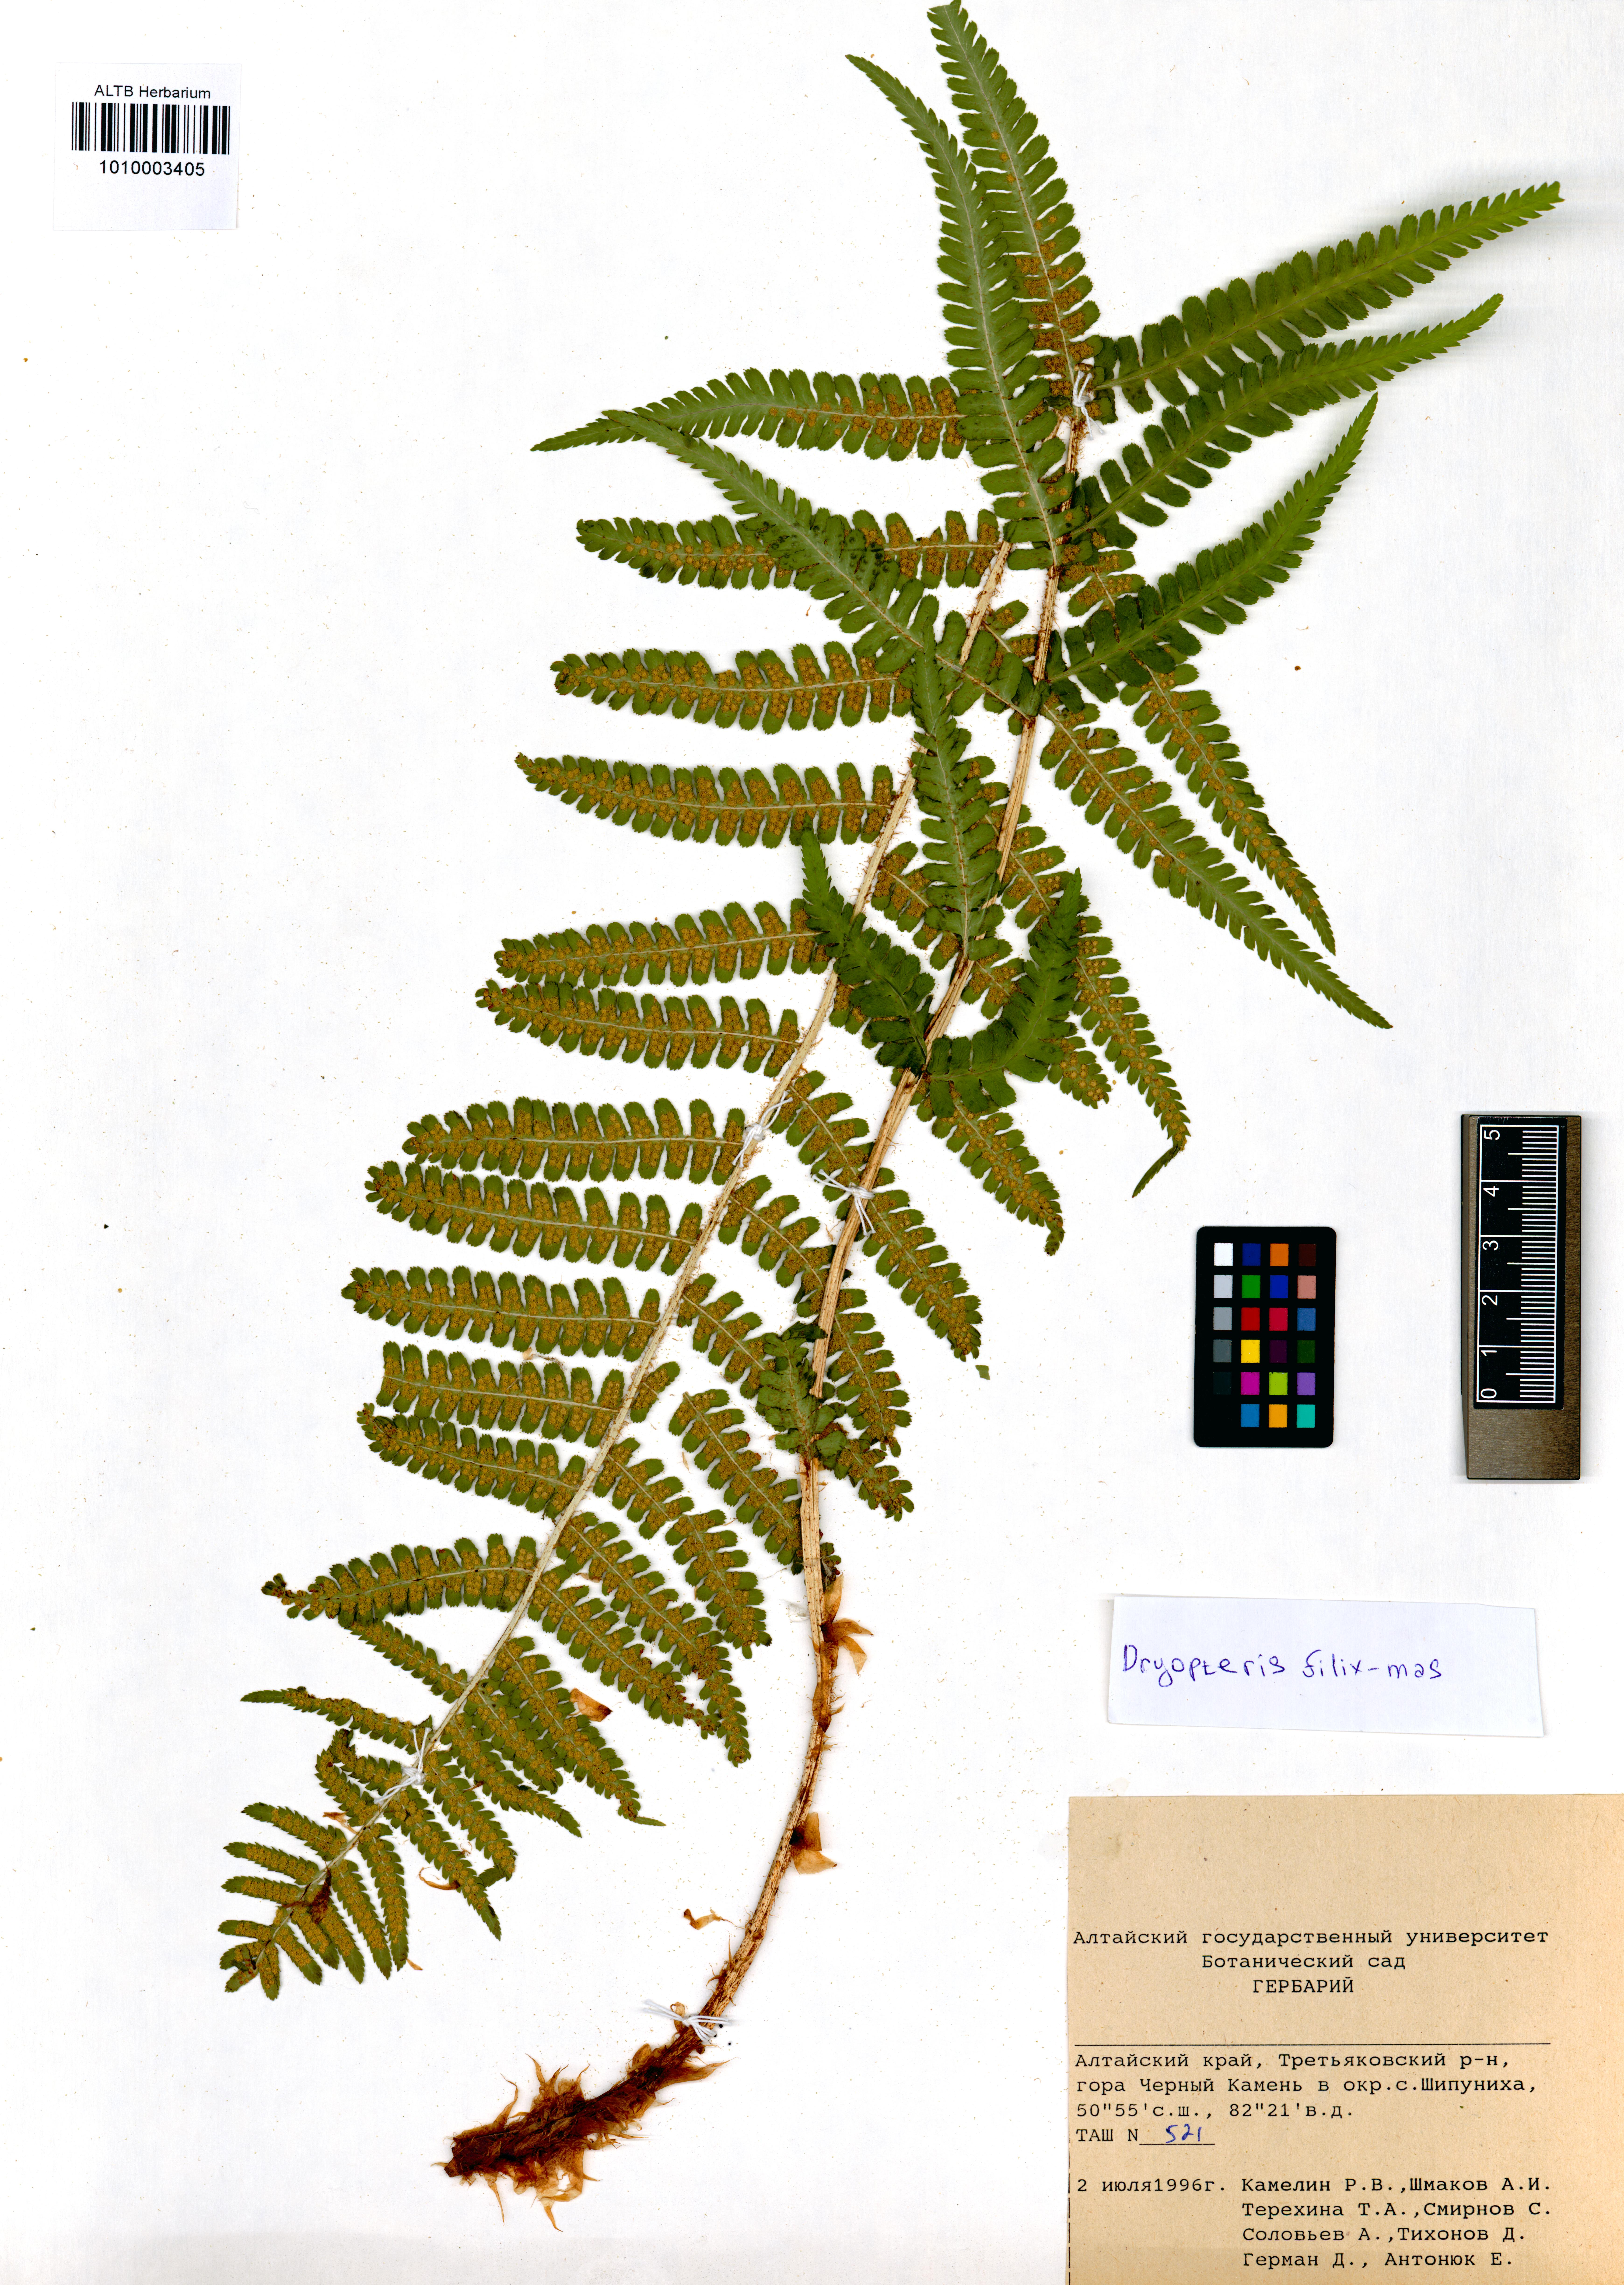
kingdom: Plantae
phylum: Tracheophyta
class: Polypodiopsida
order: Polypodiales
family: Dryopteridaceae
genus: Dryopteris
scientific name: Dryopteris filix-mas
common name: Male fern
